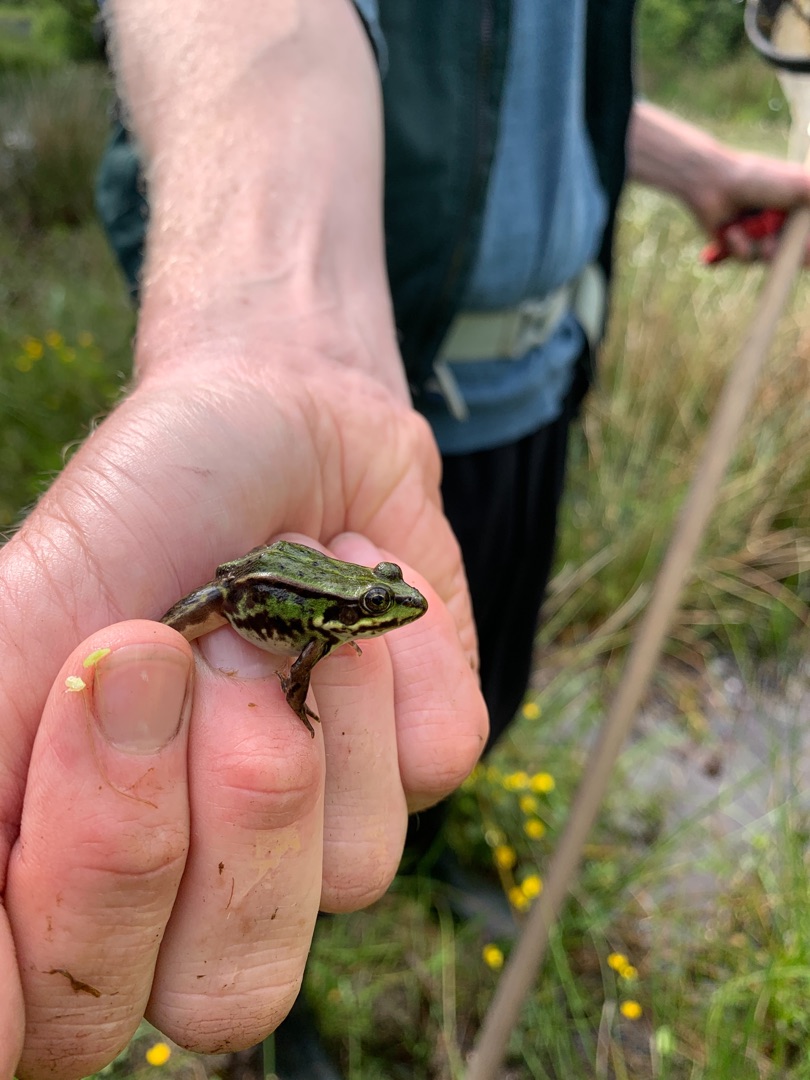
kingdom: Animalia
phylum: Chordata
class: Amphibia
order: Anura
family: Ranidae
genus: Pelophylax
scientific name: Pelophylax lessonae
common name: Grøn frø
